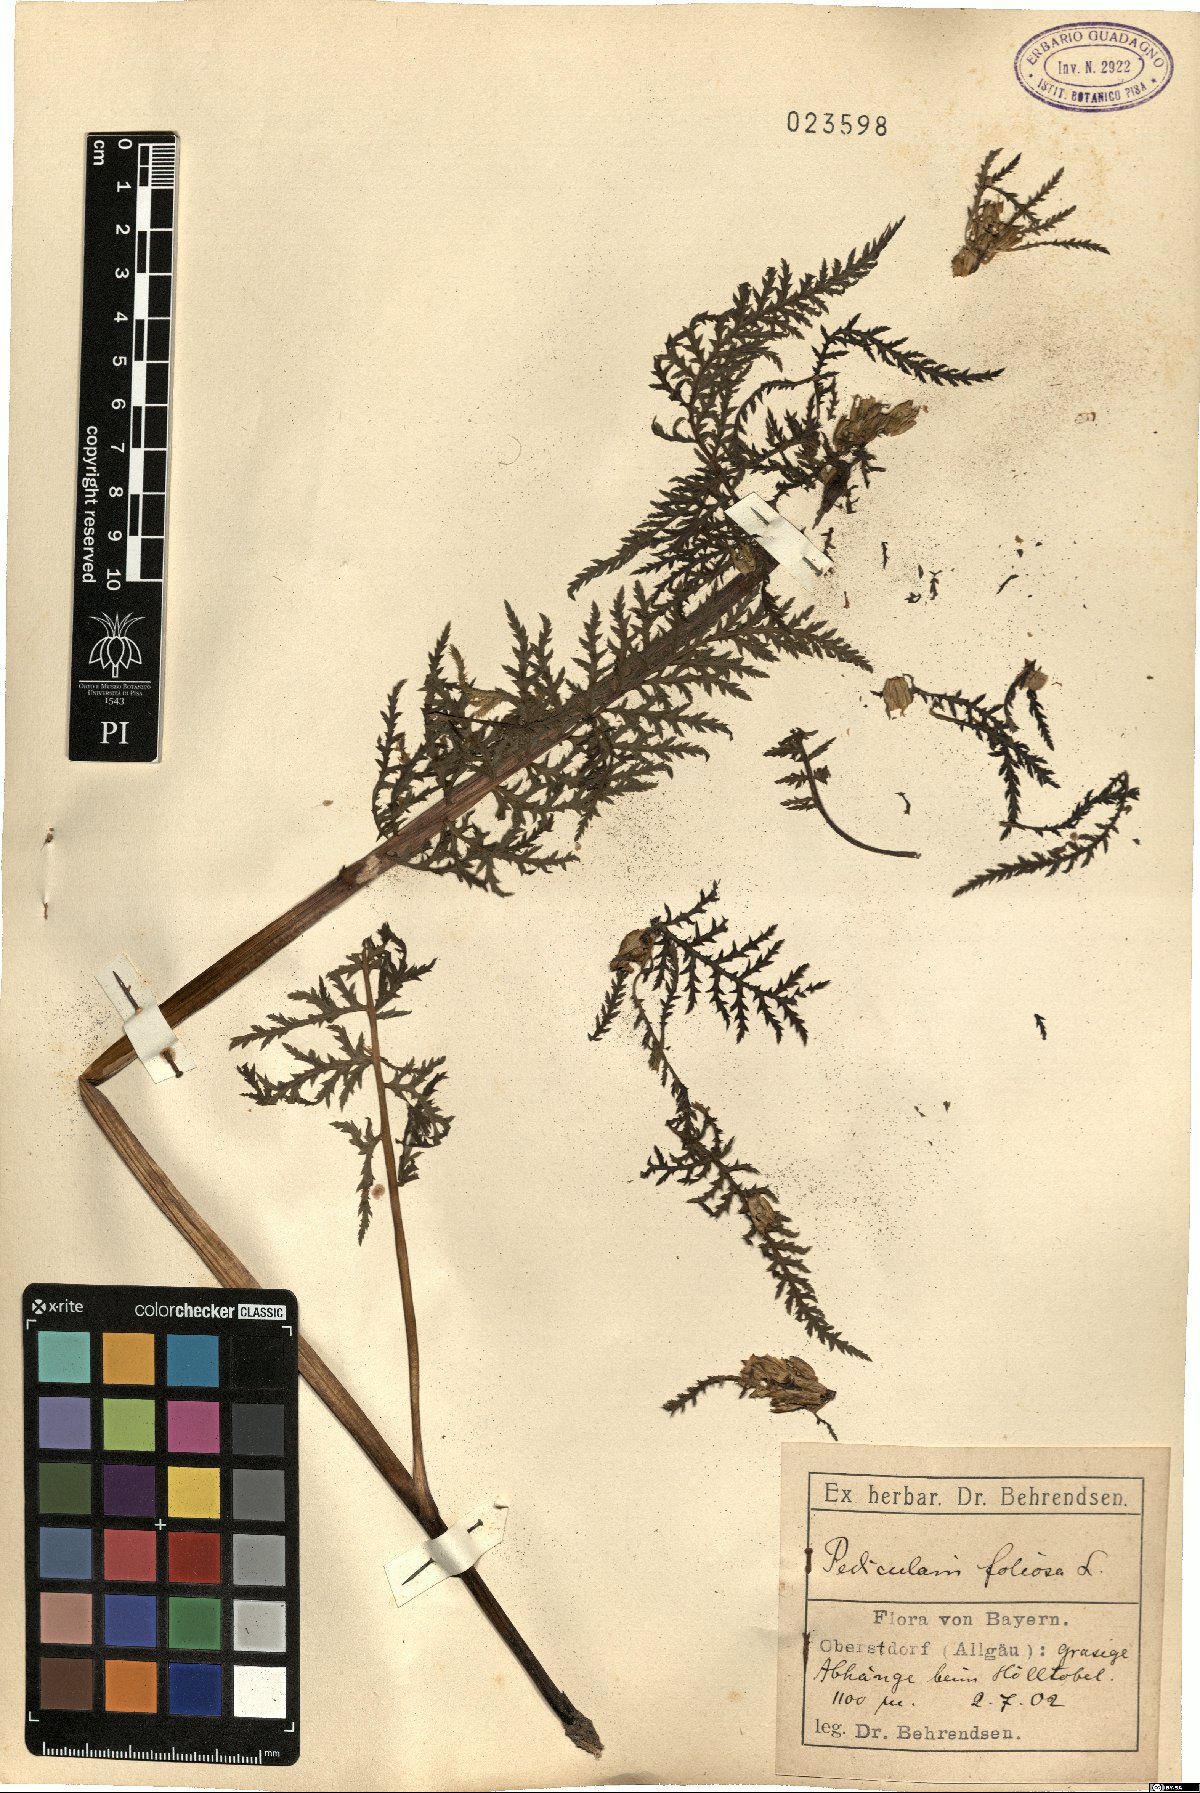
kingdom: Plantae
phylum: Tracheophyta
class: Magnoliopsida
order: Lamiales
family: Orobanchaceae
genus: Pedicularis
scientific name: Pedicularis foliosa
